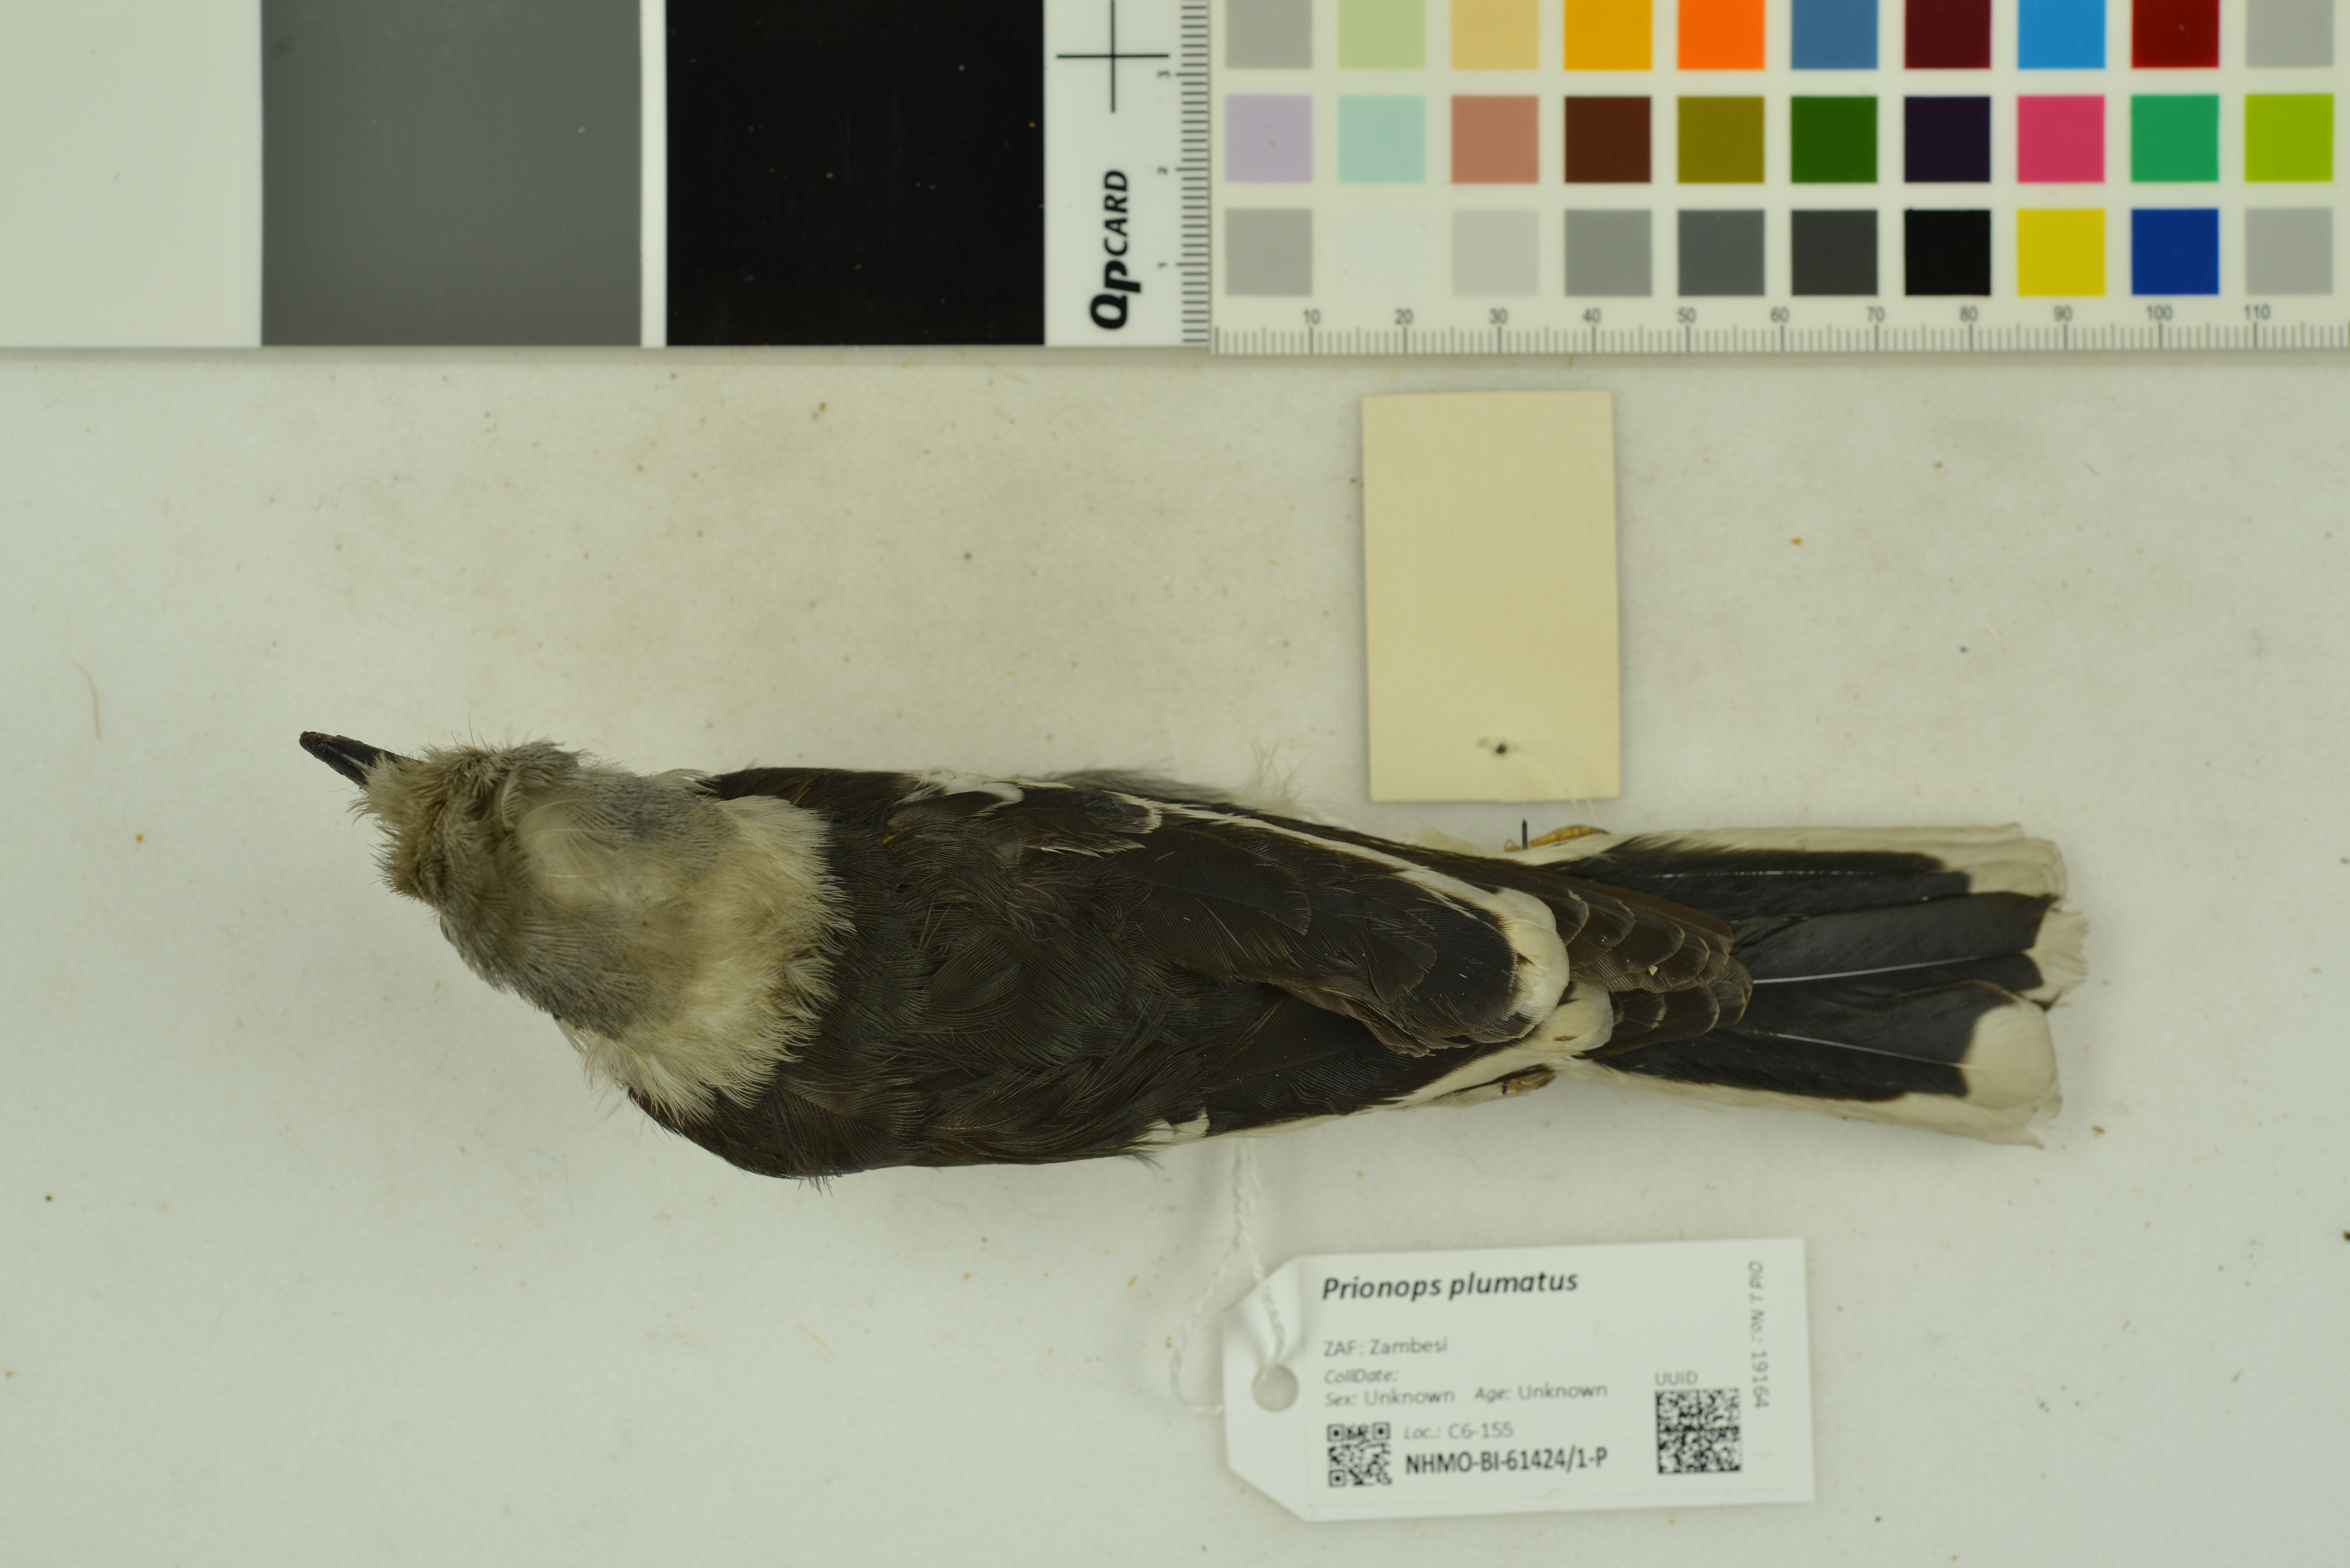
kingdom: Animalia
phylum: Chordata
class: Aves
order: Passeriformes
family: Prionopidae
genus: Prionops
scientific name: Prionops plumatus
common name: White-crested helmetshrike
